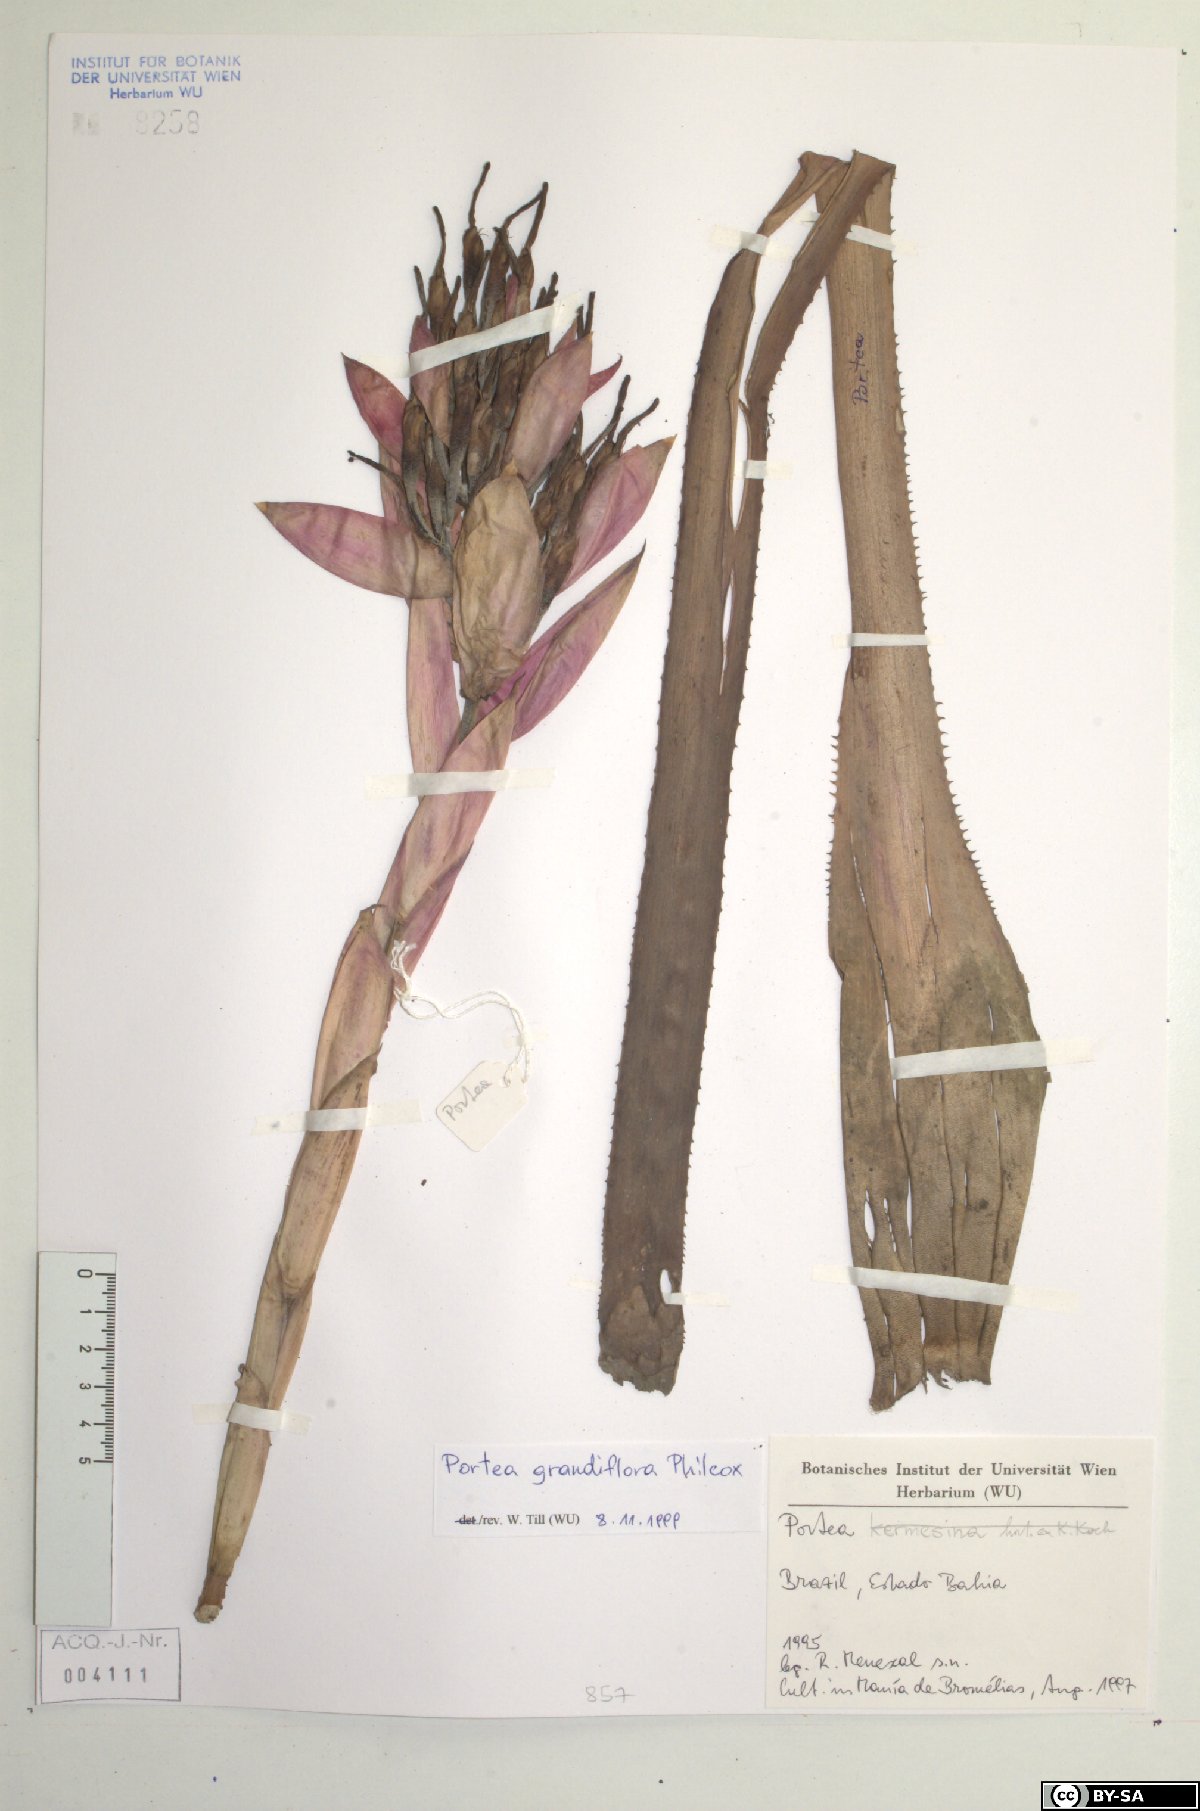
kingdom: Plantae
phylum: Tracheophyta
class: Liliopsida
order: Poales
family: Bromeliaceae
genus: Portea
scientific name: Portea
